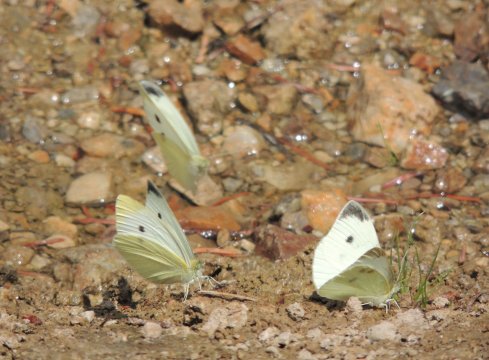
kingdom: Animalia
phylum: Arthropoda
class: Insecta
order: Lepidoptera
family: Pieridae
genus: Pieris
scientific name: Pieris rapae
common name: Cabbage White
